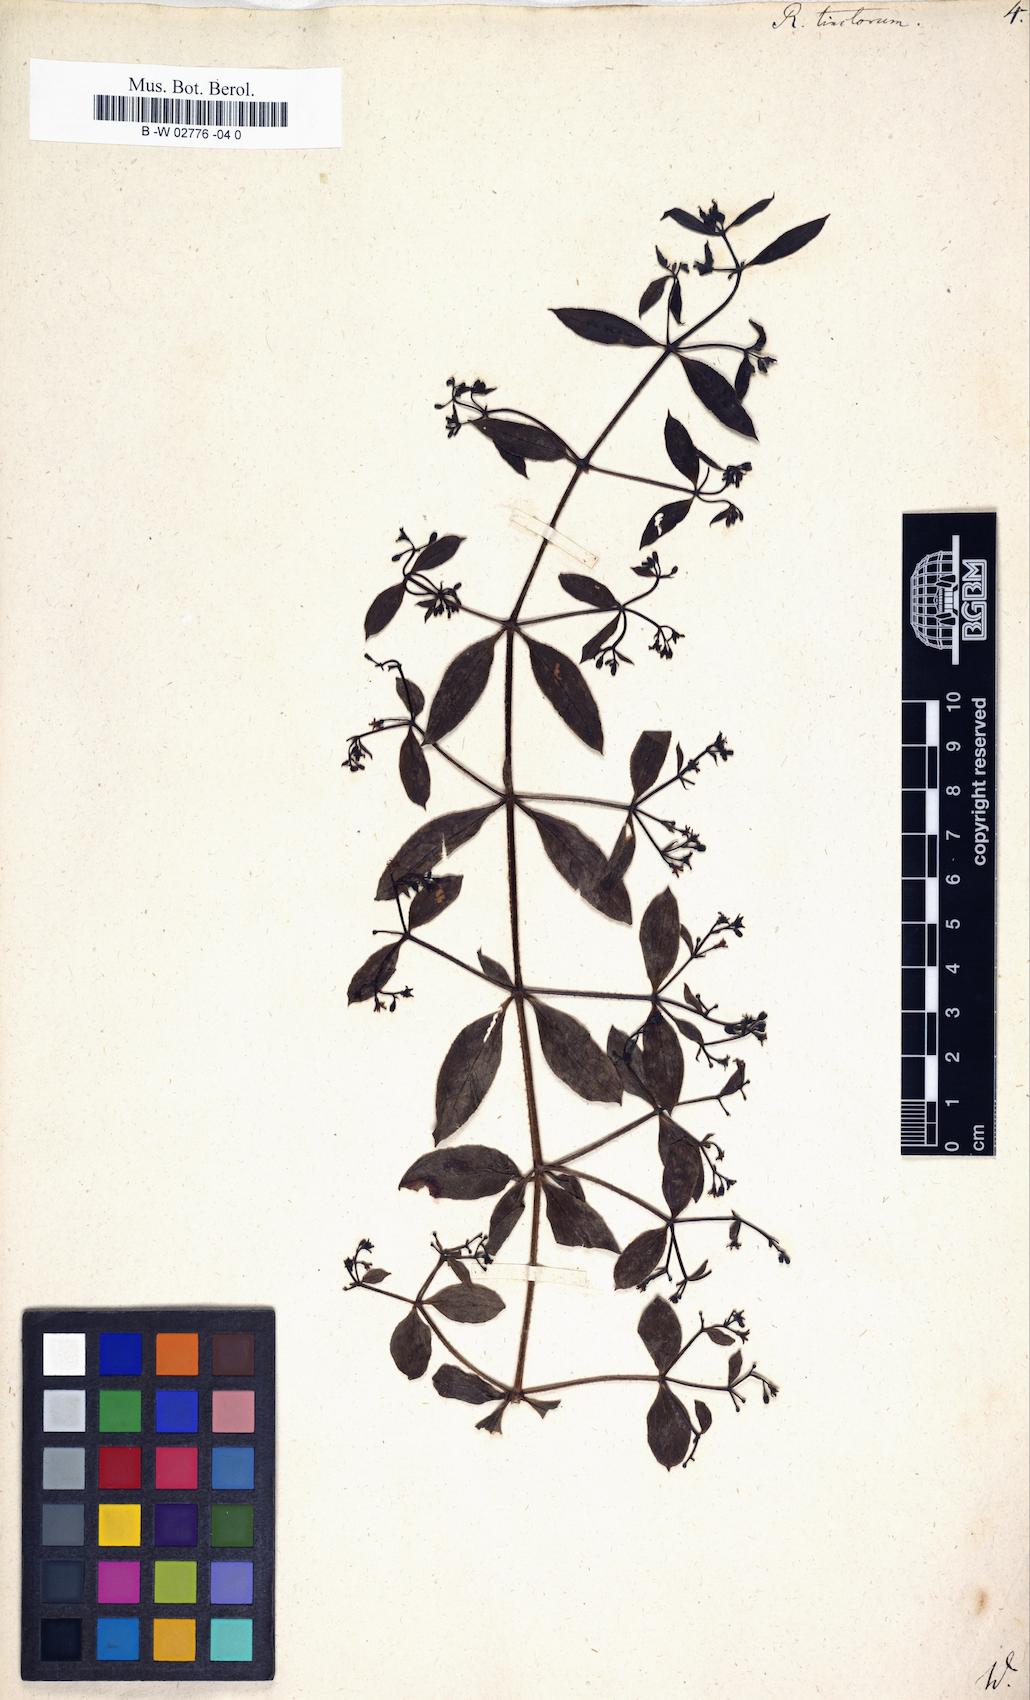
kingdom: Plantae
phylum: Tracheophyta
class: Magnoliopsida
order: Gentianales
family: Rubiaceae
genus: Rubia
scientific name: Rubia tinctorum
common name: Dyer's madder
